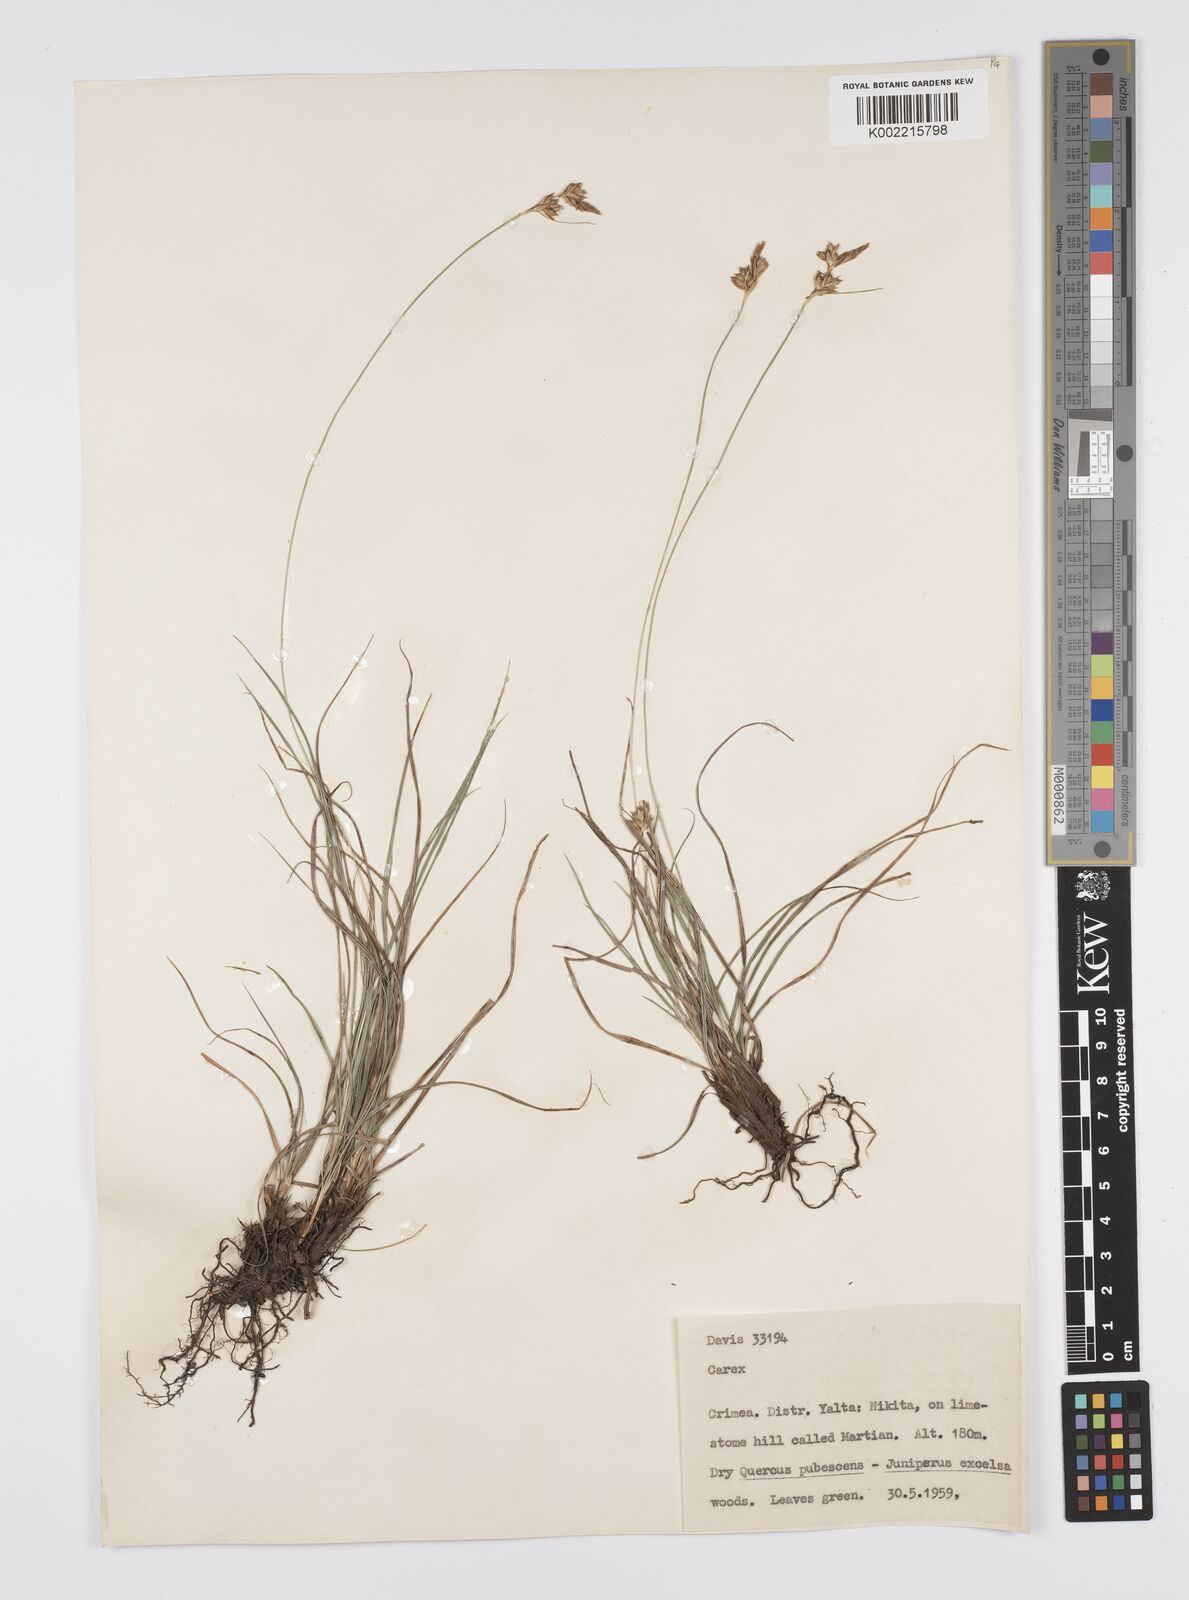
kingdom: Plantae
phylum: Tracheophyta
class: Liliopsida
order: Poales
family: Cyperaceae
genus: Carex
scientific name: Carex
